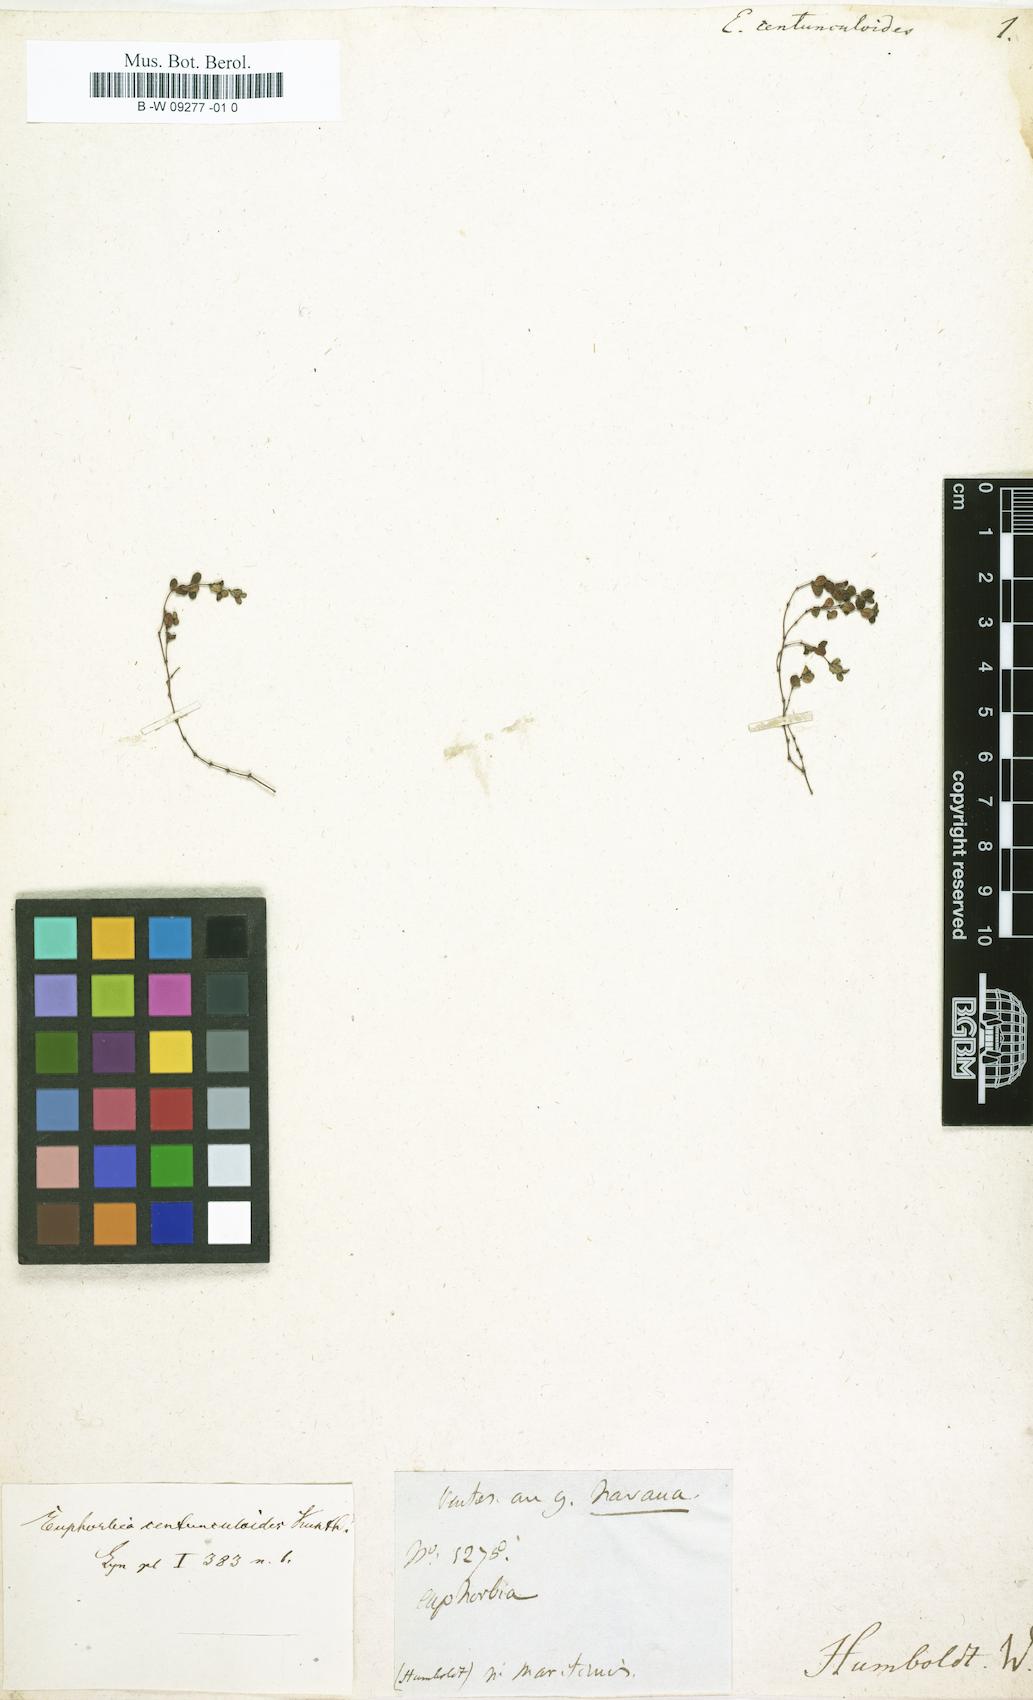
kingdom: Plantae
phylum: Tracheophyta
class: Magnoliopsida
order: Malpighiales
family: Euphorbiaceae
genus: Euphorbia
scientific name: Euphorbia centunculoides
